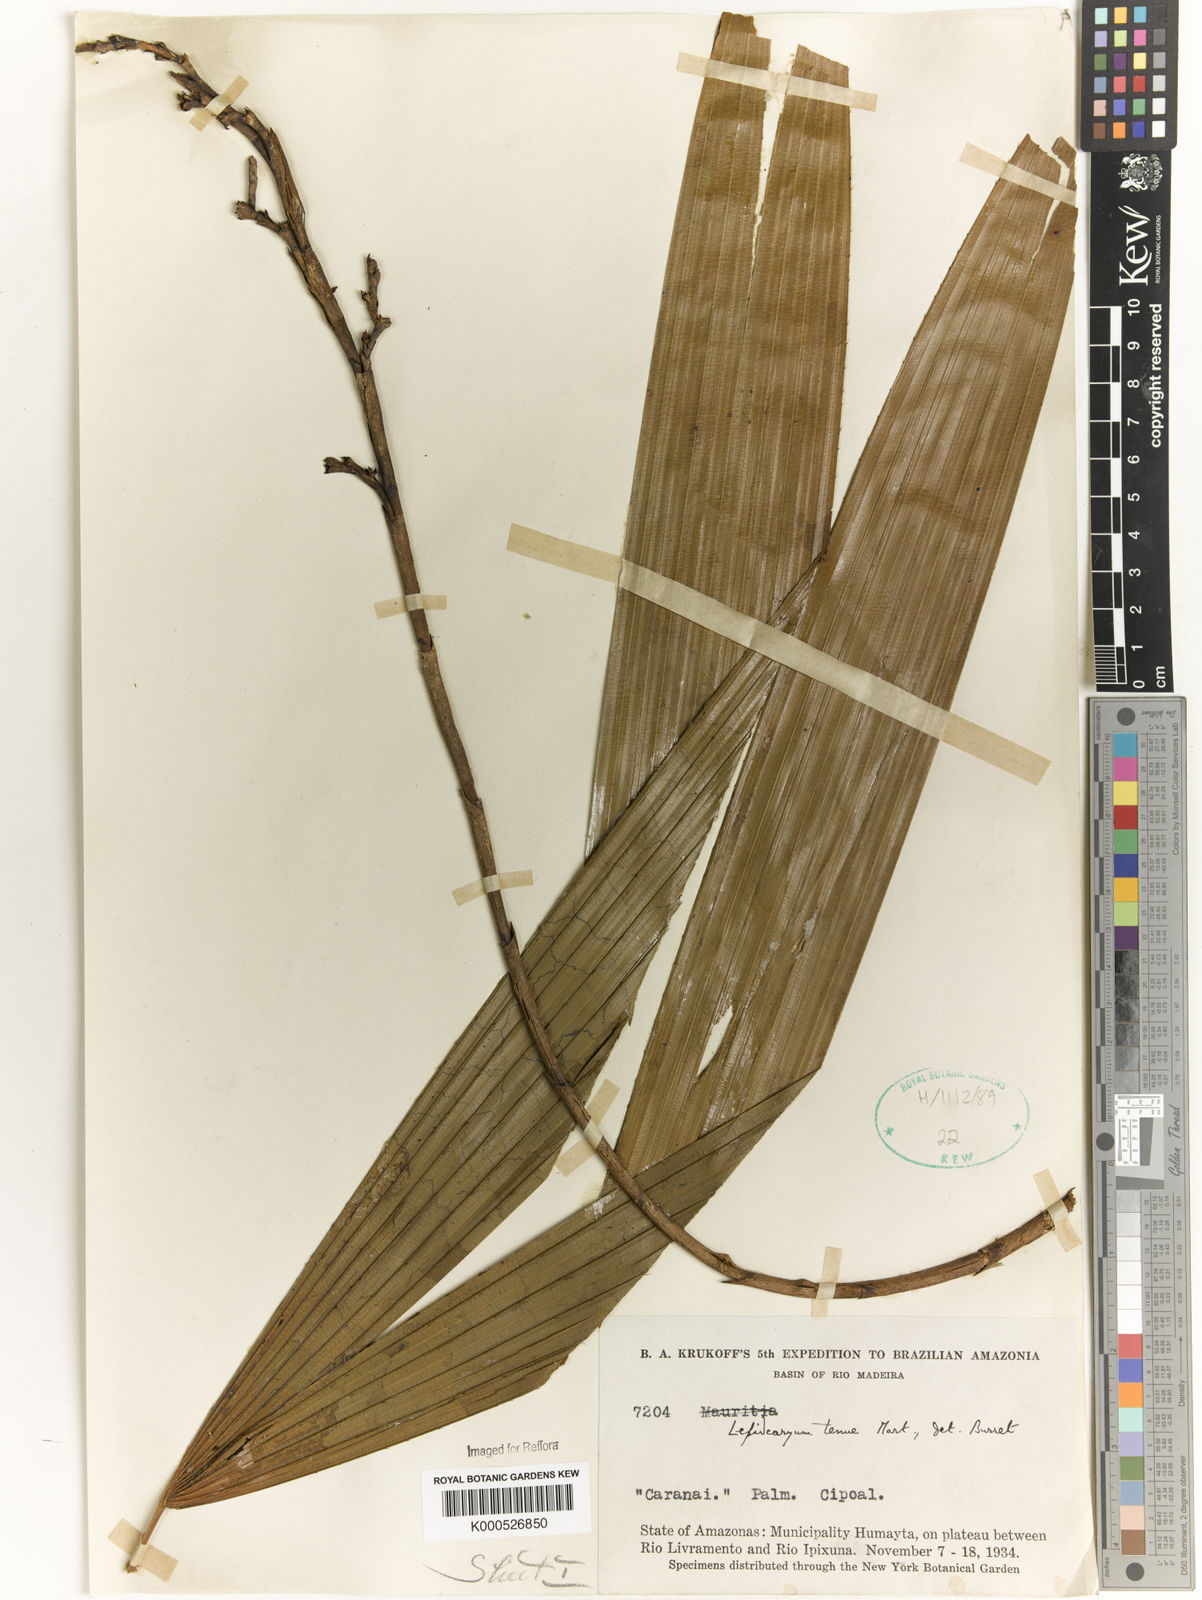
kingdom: Plantae
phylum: Tracheophyta
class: Liliopsida
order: Arecales
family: Arecaceae
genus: Lepidocaryum
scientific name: Lepidocaryum tenue
